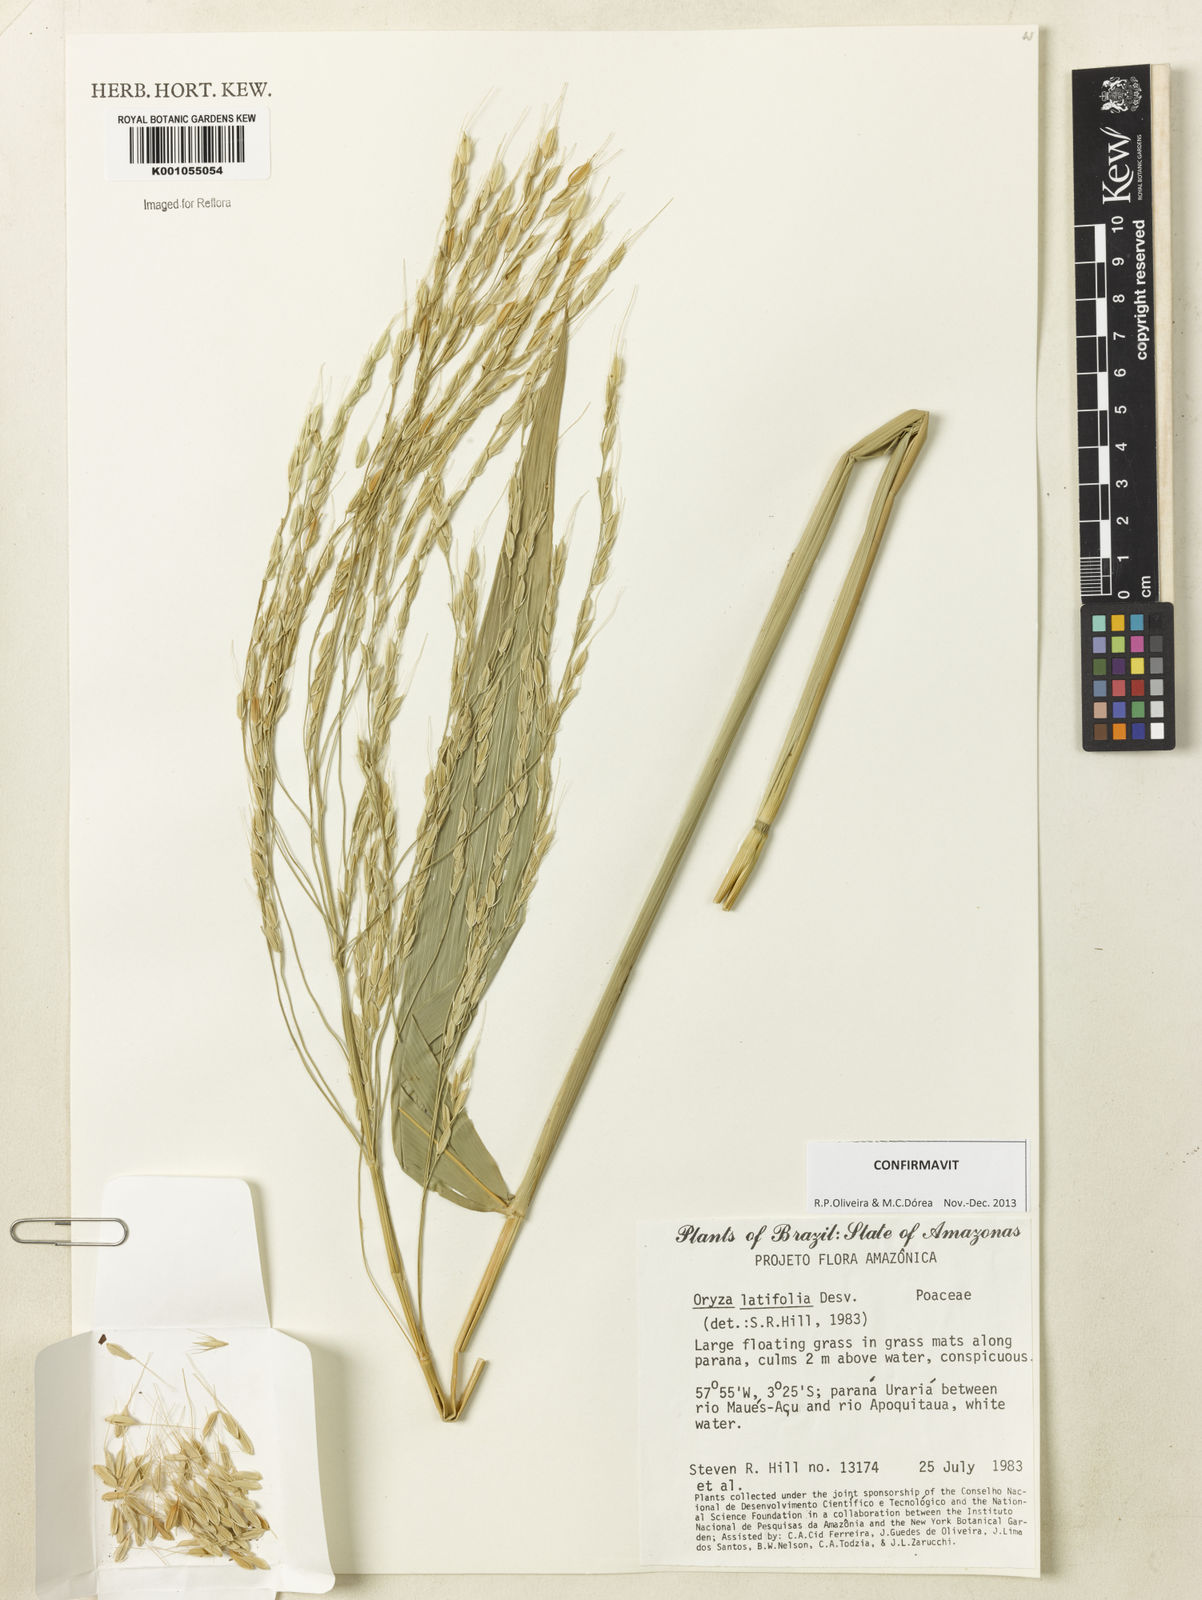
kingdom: Plantae
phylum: Tracheophyta
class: Liliopsida
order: Poales
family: Poaceae
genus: Oryza
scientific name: Oryza latifolia
